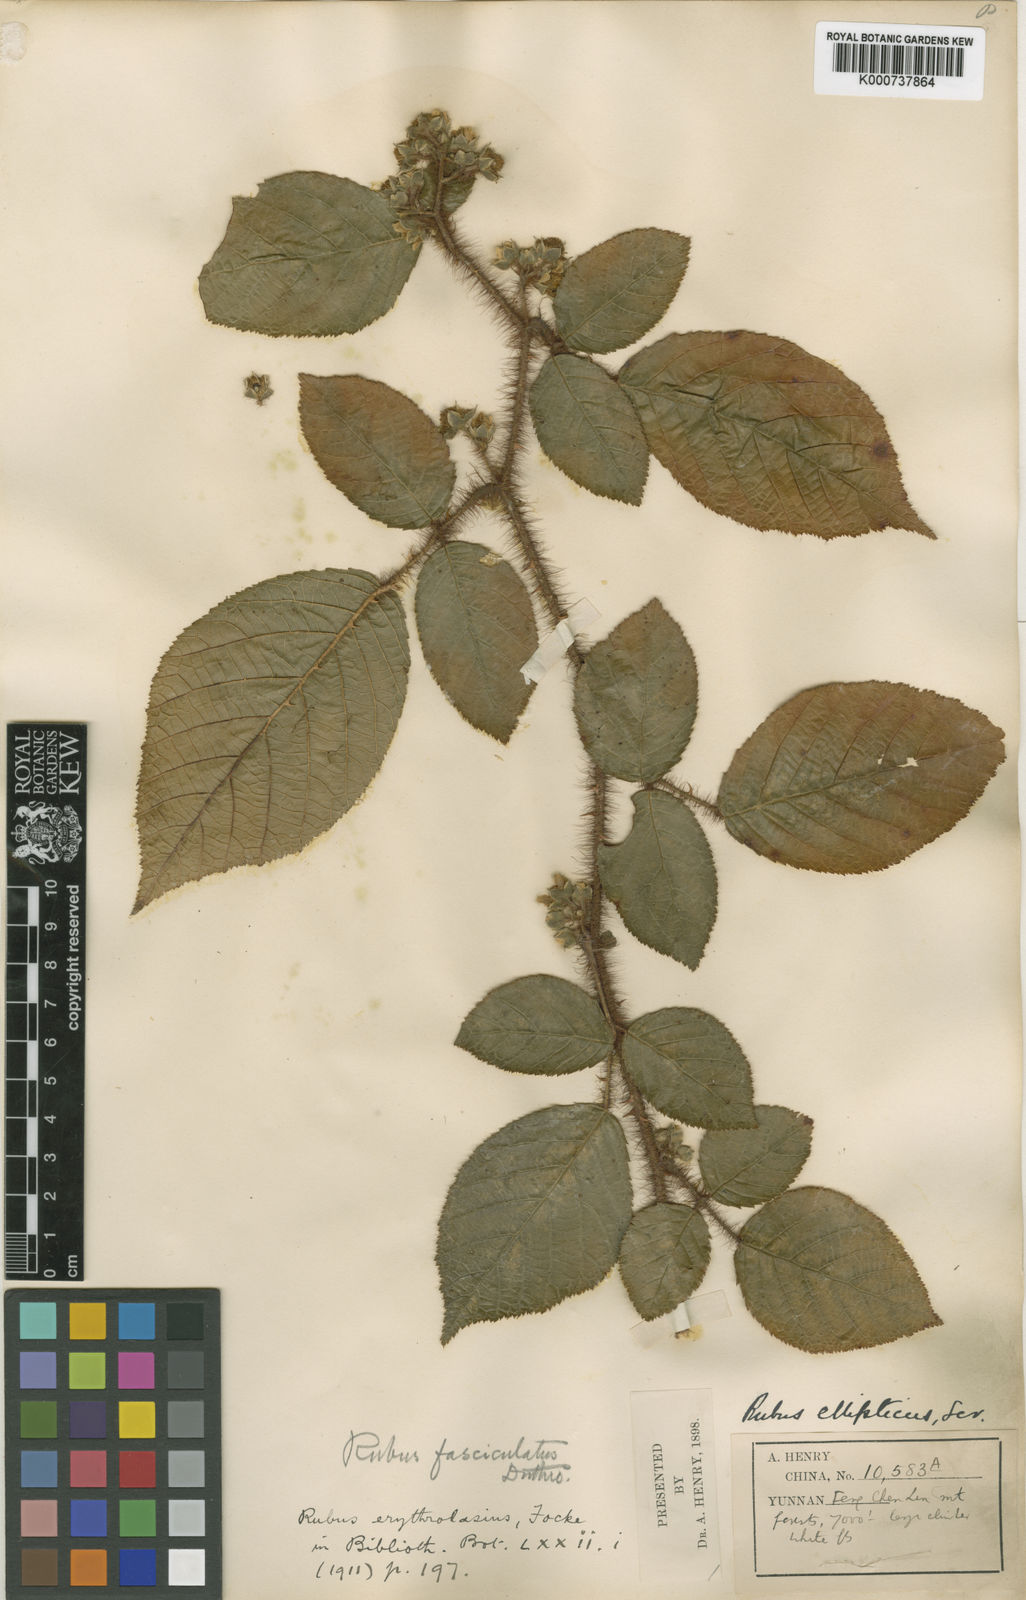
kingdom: Plantae
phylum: Tracheophyta
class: Magnoliopsida
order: Rosales
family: Rosaceae
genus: Rubus
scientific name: Rubus ellipticus
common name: Cheeseberry
